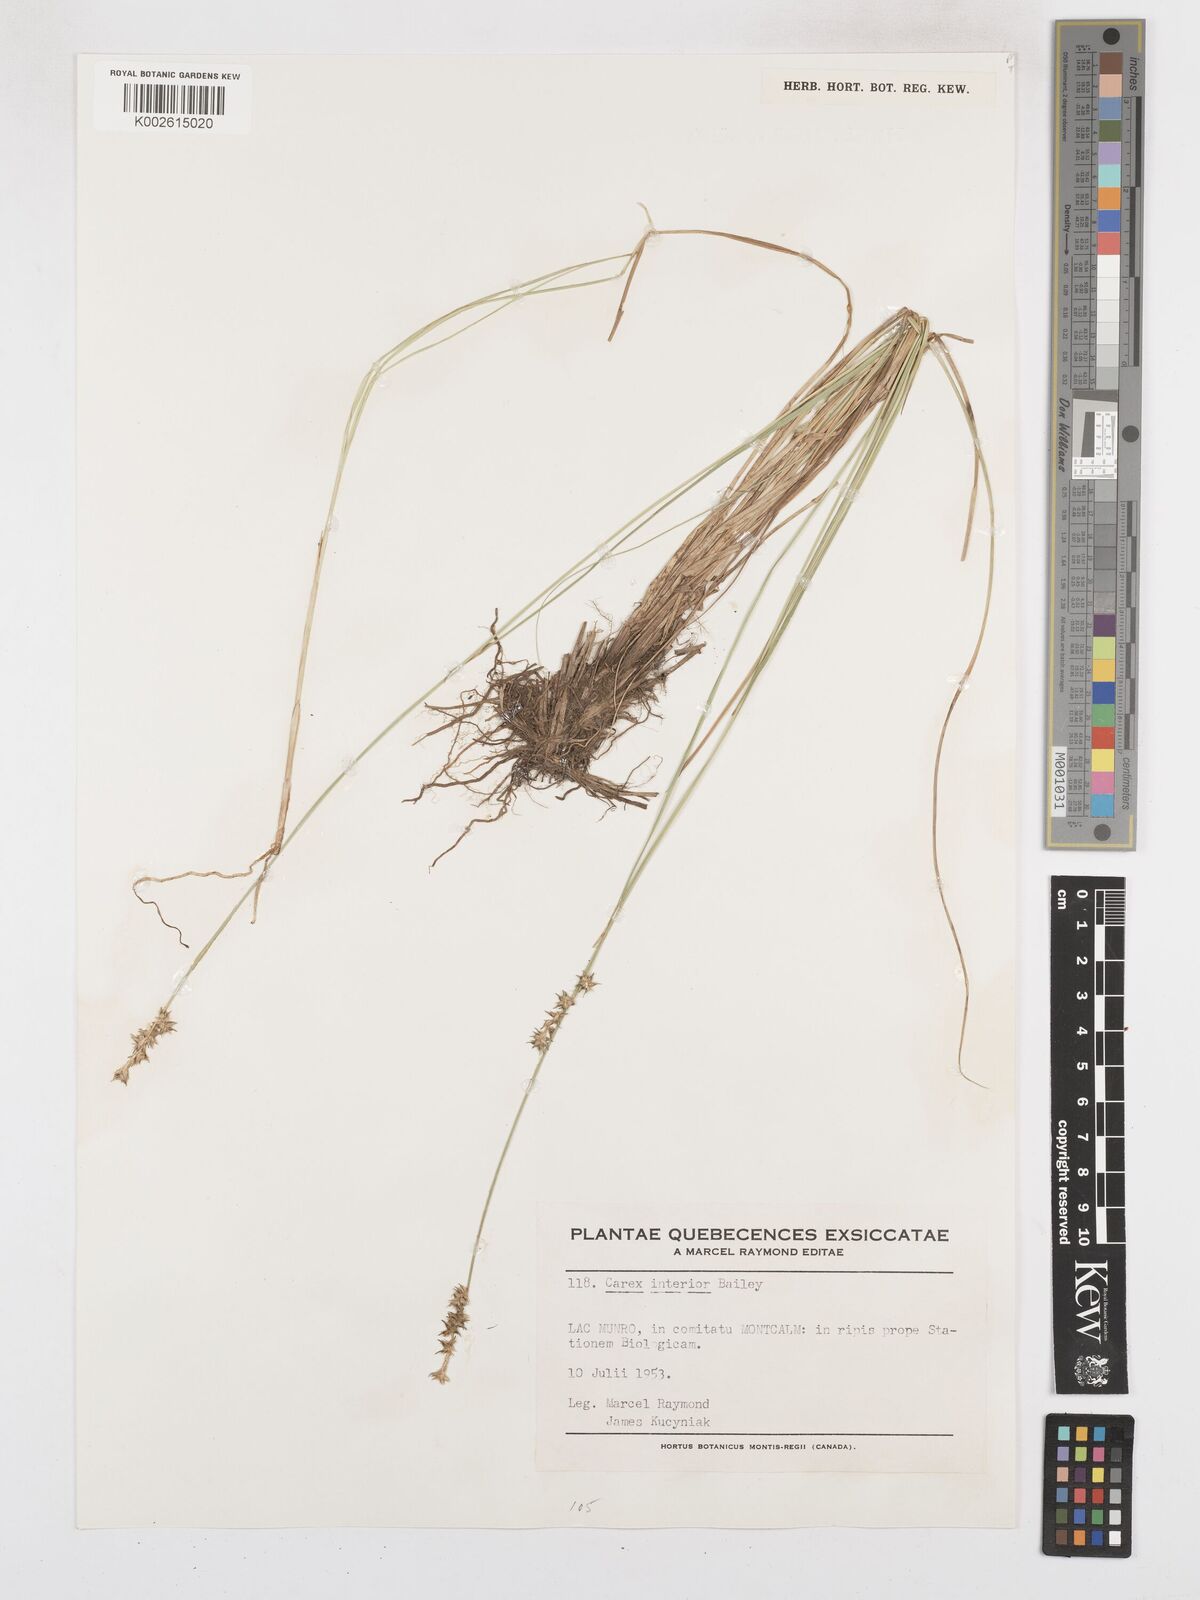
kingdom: Plantae
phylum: Tracheophyta
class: Liliopsida
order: Poales
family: Cyperaceae
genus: Carex
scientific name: Carex interior
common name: Inland sedge
